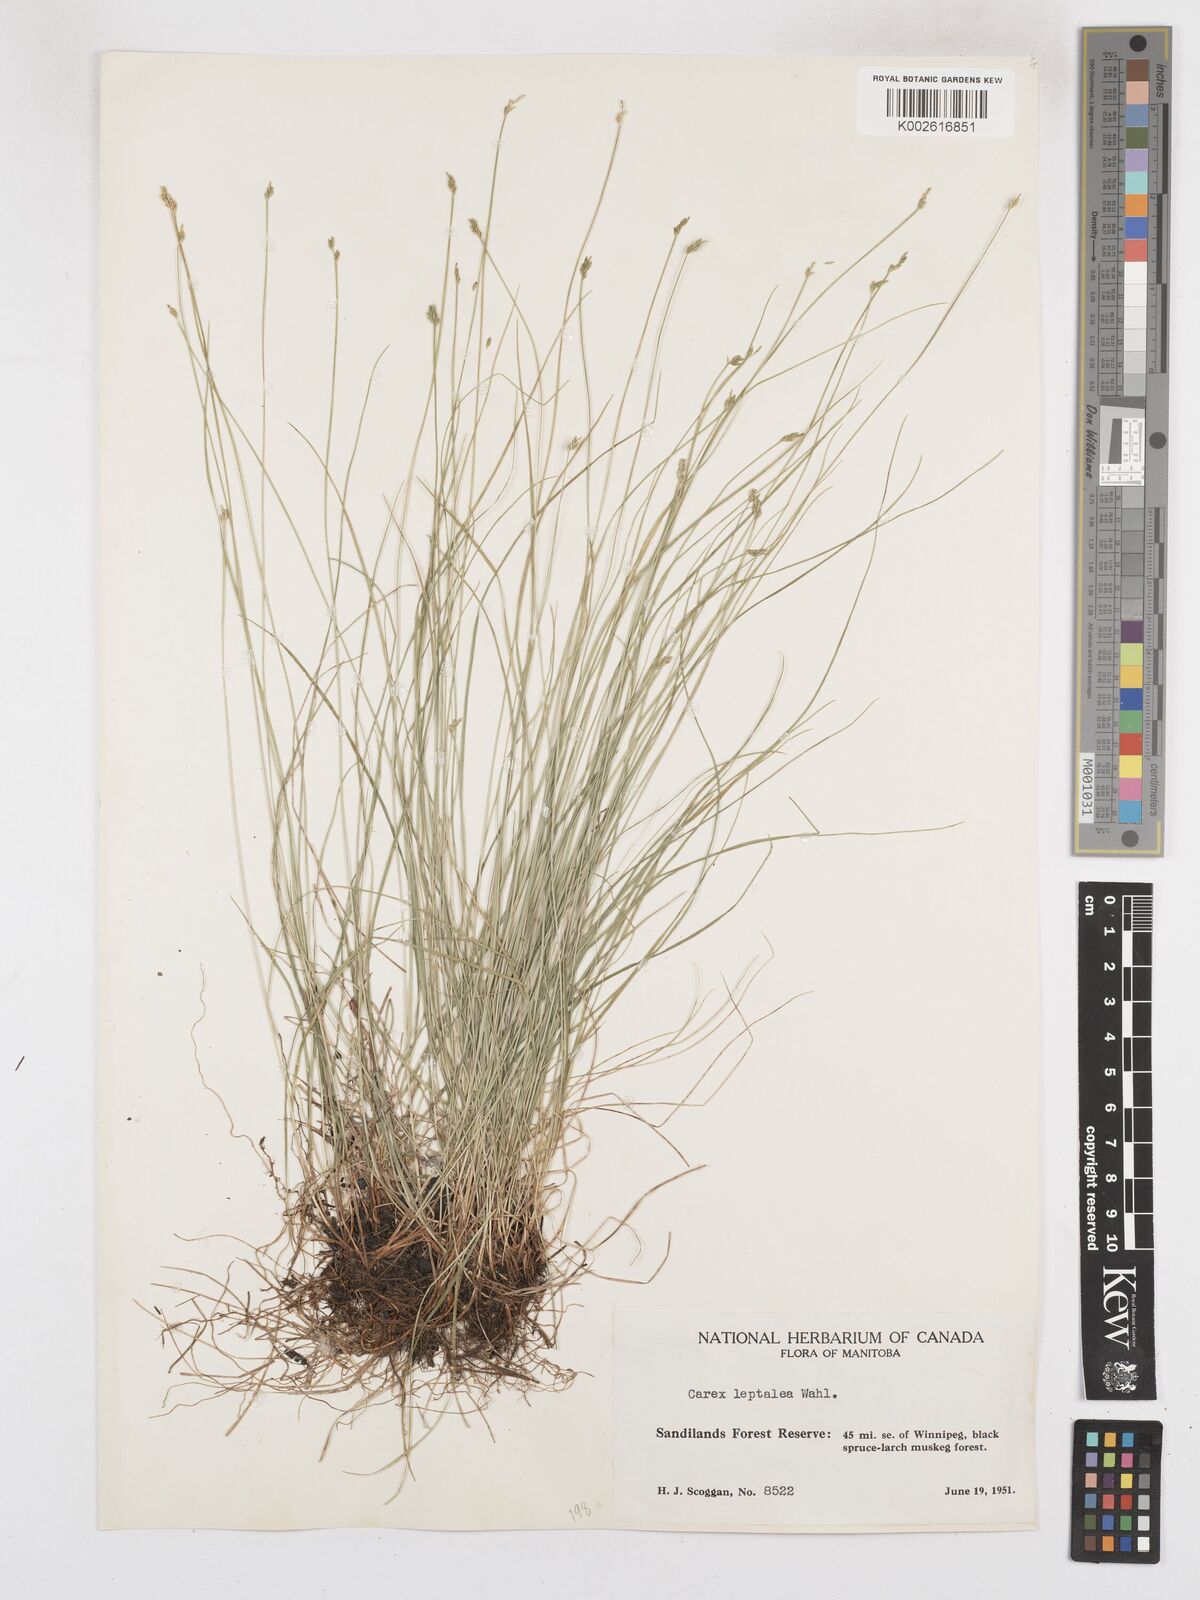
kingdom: Plantae
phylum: Tracheophyta
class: Liliopsida
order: Poales
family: Cyperaceae
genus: Carex
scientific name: Carex leptalea
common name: Bristly-stalked sedge
